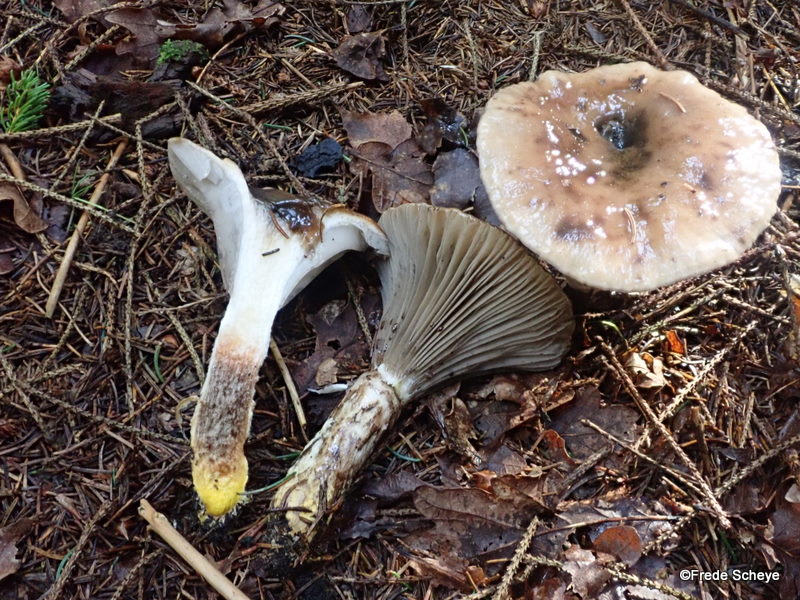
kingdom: Fungi
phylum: Basidiomycota
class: Agaricomycetes
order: Boletales
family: Gomphidiaceae
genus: Gomphidius
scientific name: Gomphidius glutinosus
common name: grå slimslør
